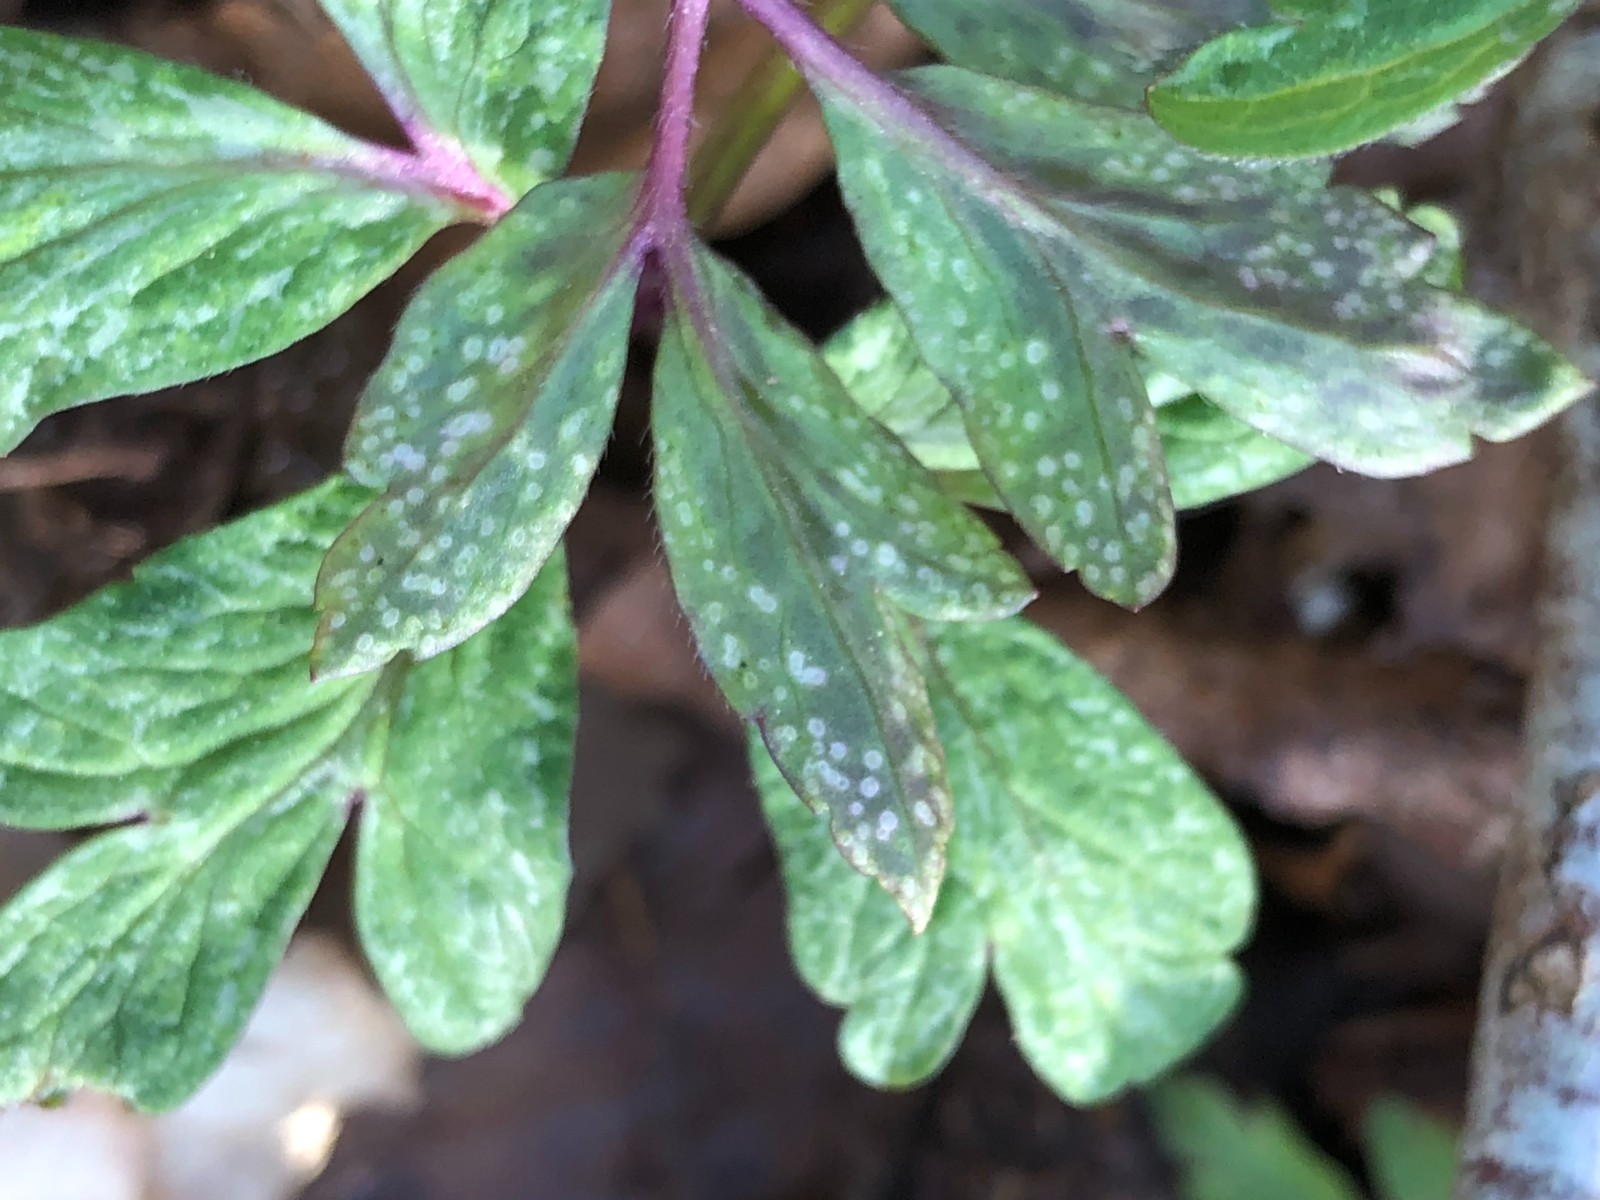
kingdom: Fungi
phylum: Basidiomycota
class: Pucciniomycetes
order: Pucciniales
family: Ochropsoraceae
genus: Ochropsora
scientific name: Ochropsora ariae
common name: anemone-okkerpletrust
